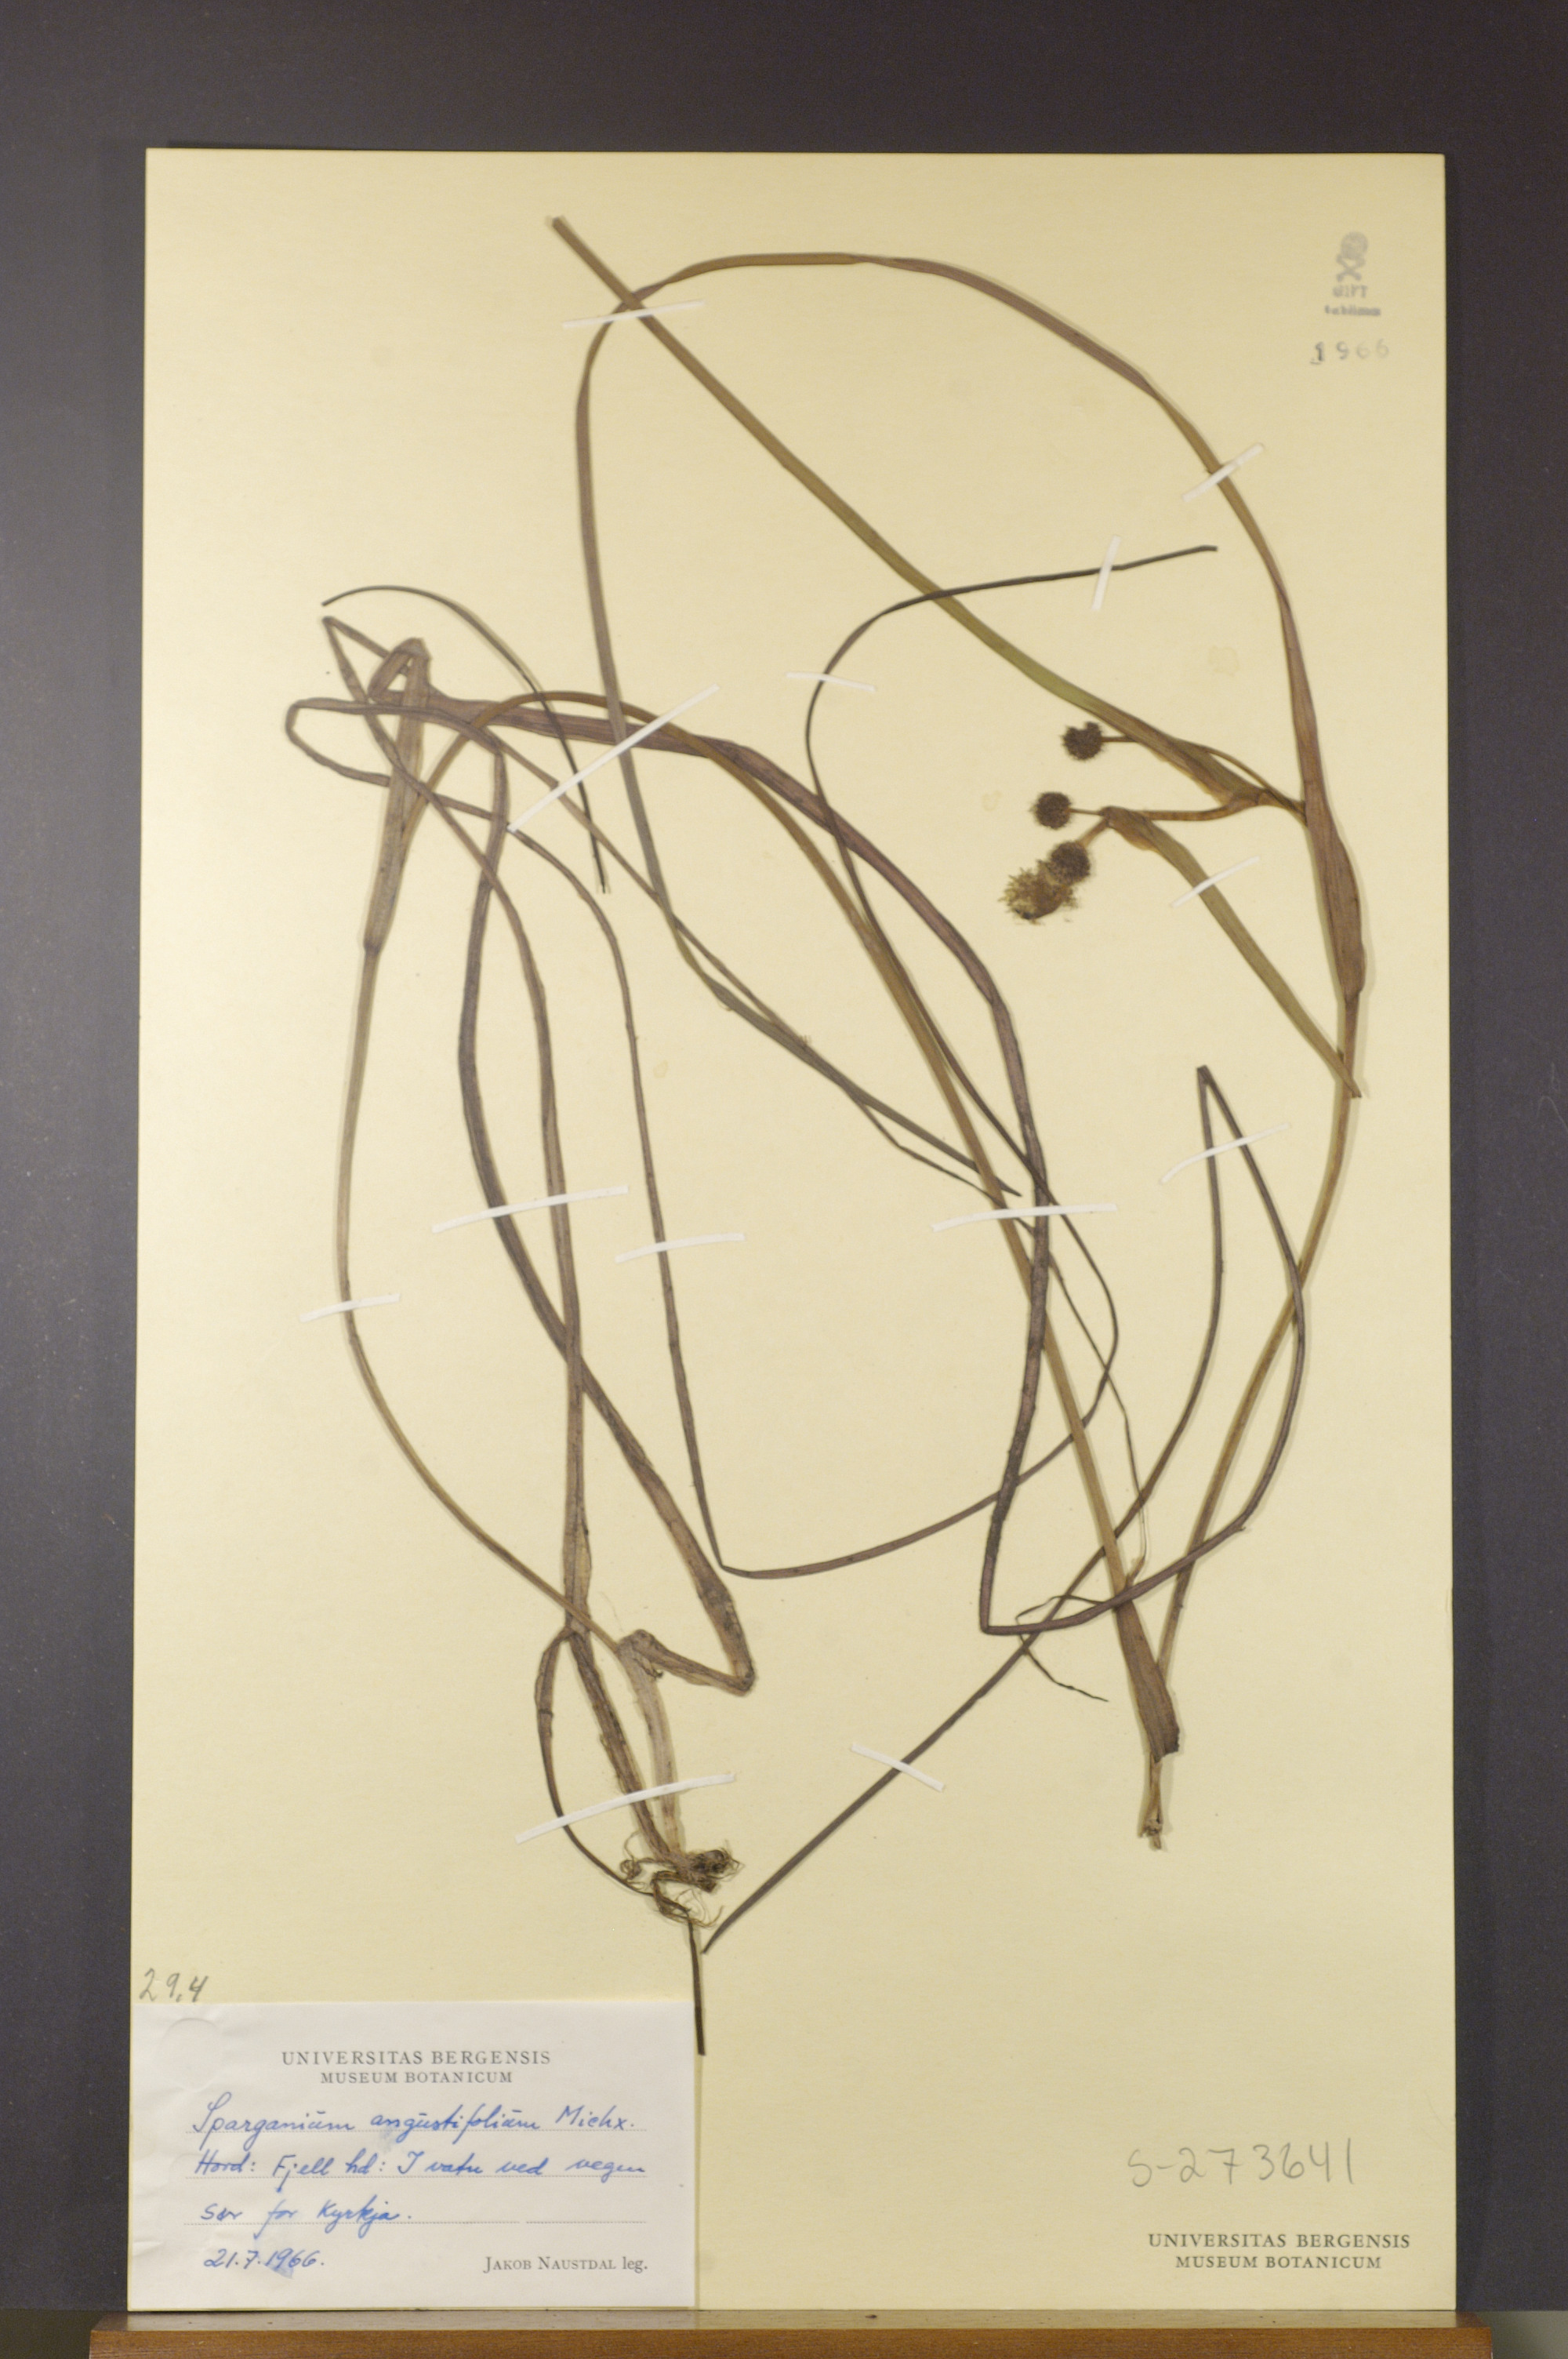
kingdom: Plantae
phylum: Tracheophyta
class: Liliopsida
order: Poales
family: Typhaceae
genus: Sparganium
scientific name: Sparganium angustifolium
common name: Floating bur-reed
